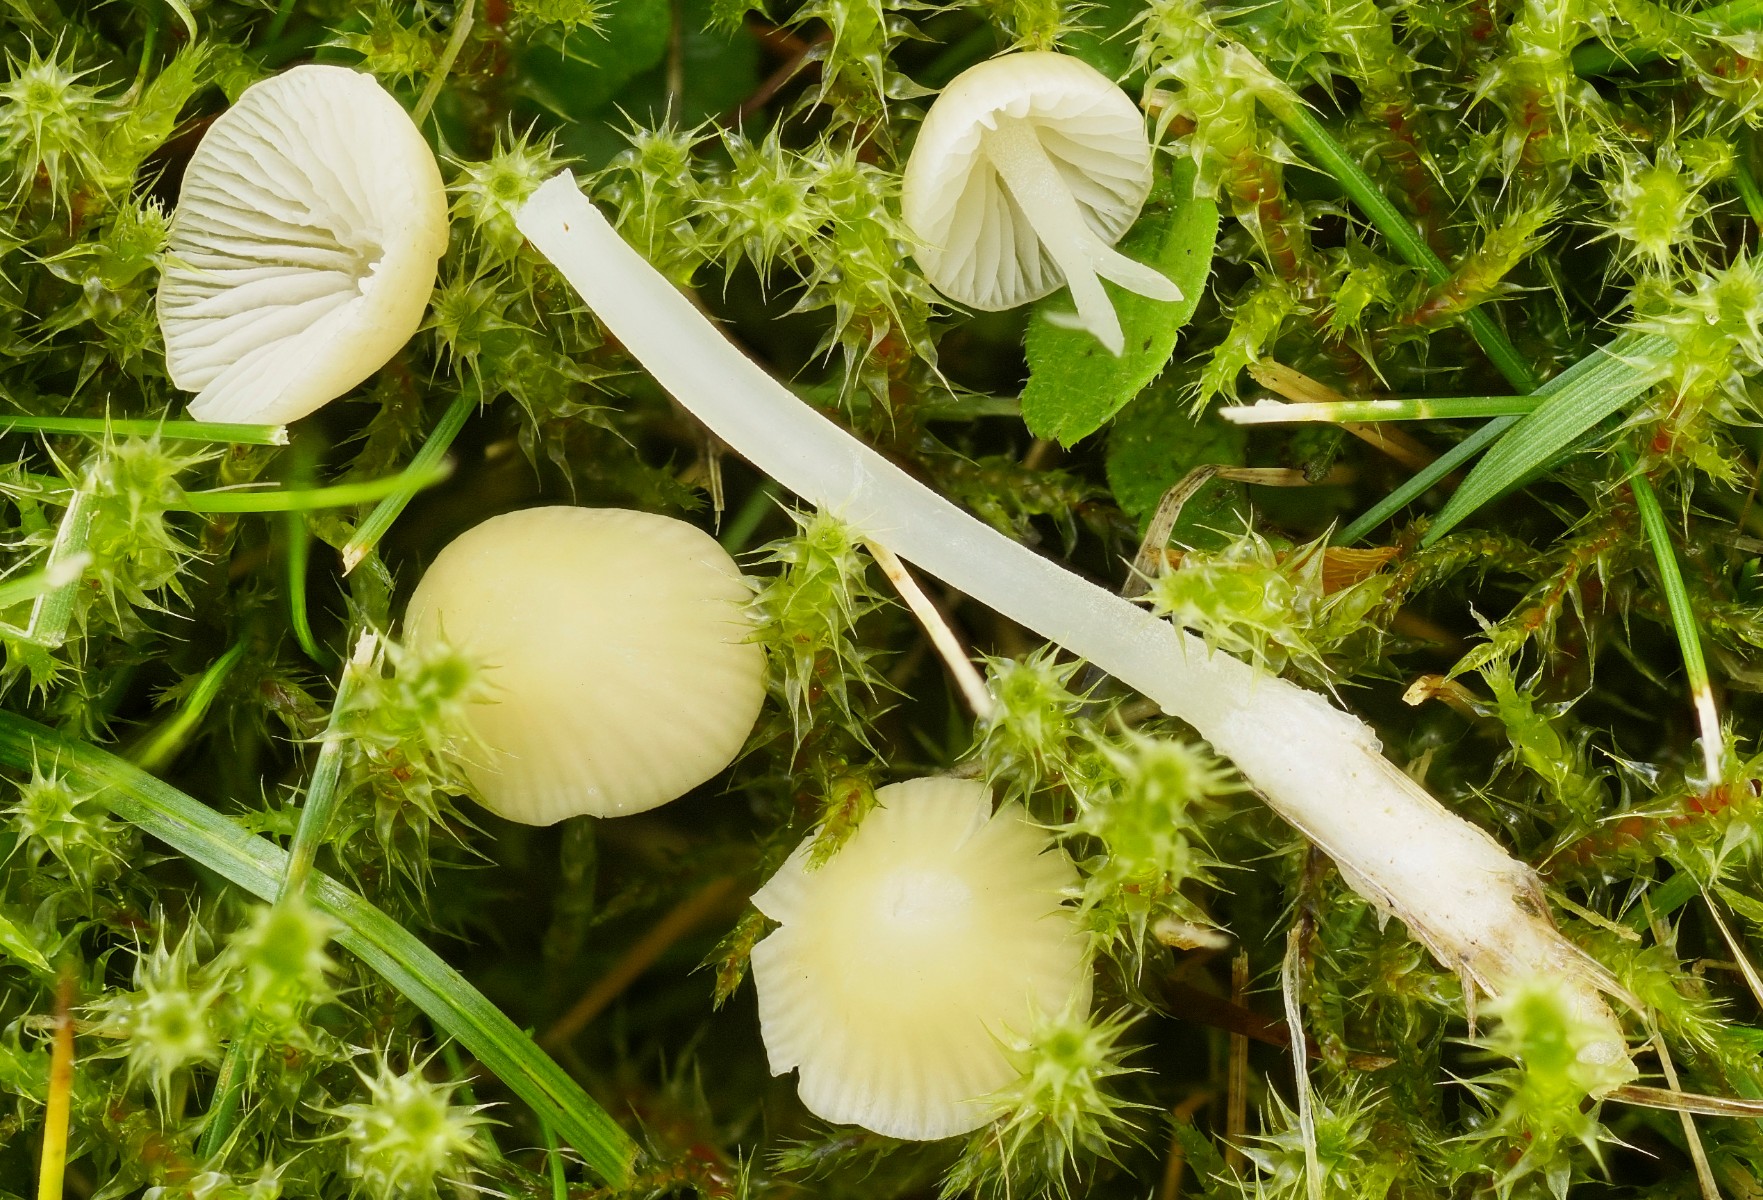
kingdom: Fungi
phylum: Basidiomycota
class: Agaricomycetes
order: Agaricales
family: Mycenaceae
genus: Atheniella
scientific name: Atheniella flavoalba
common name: gulhvid huesvamp
